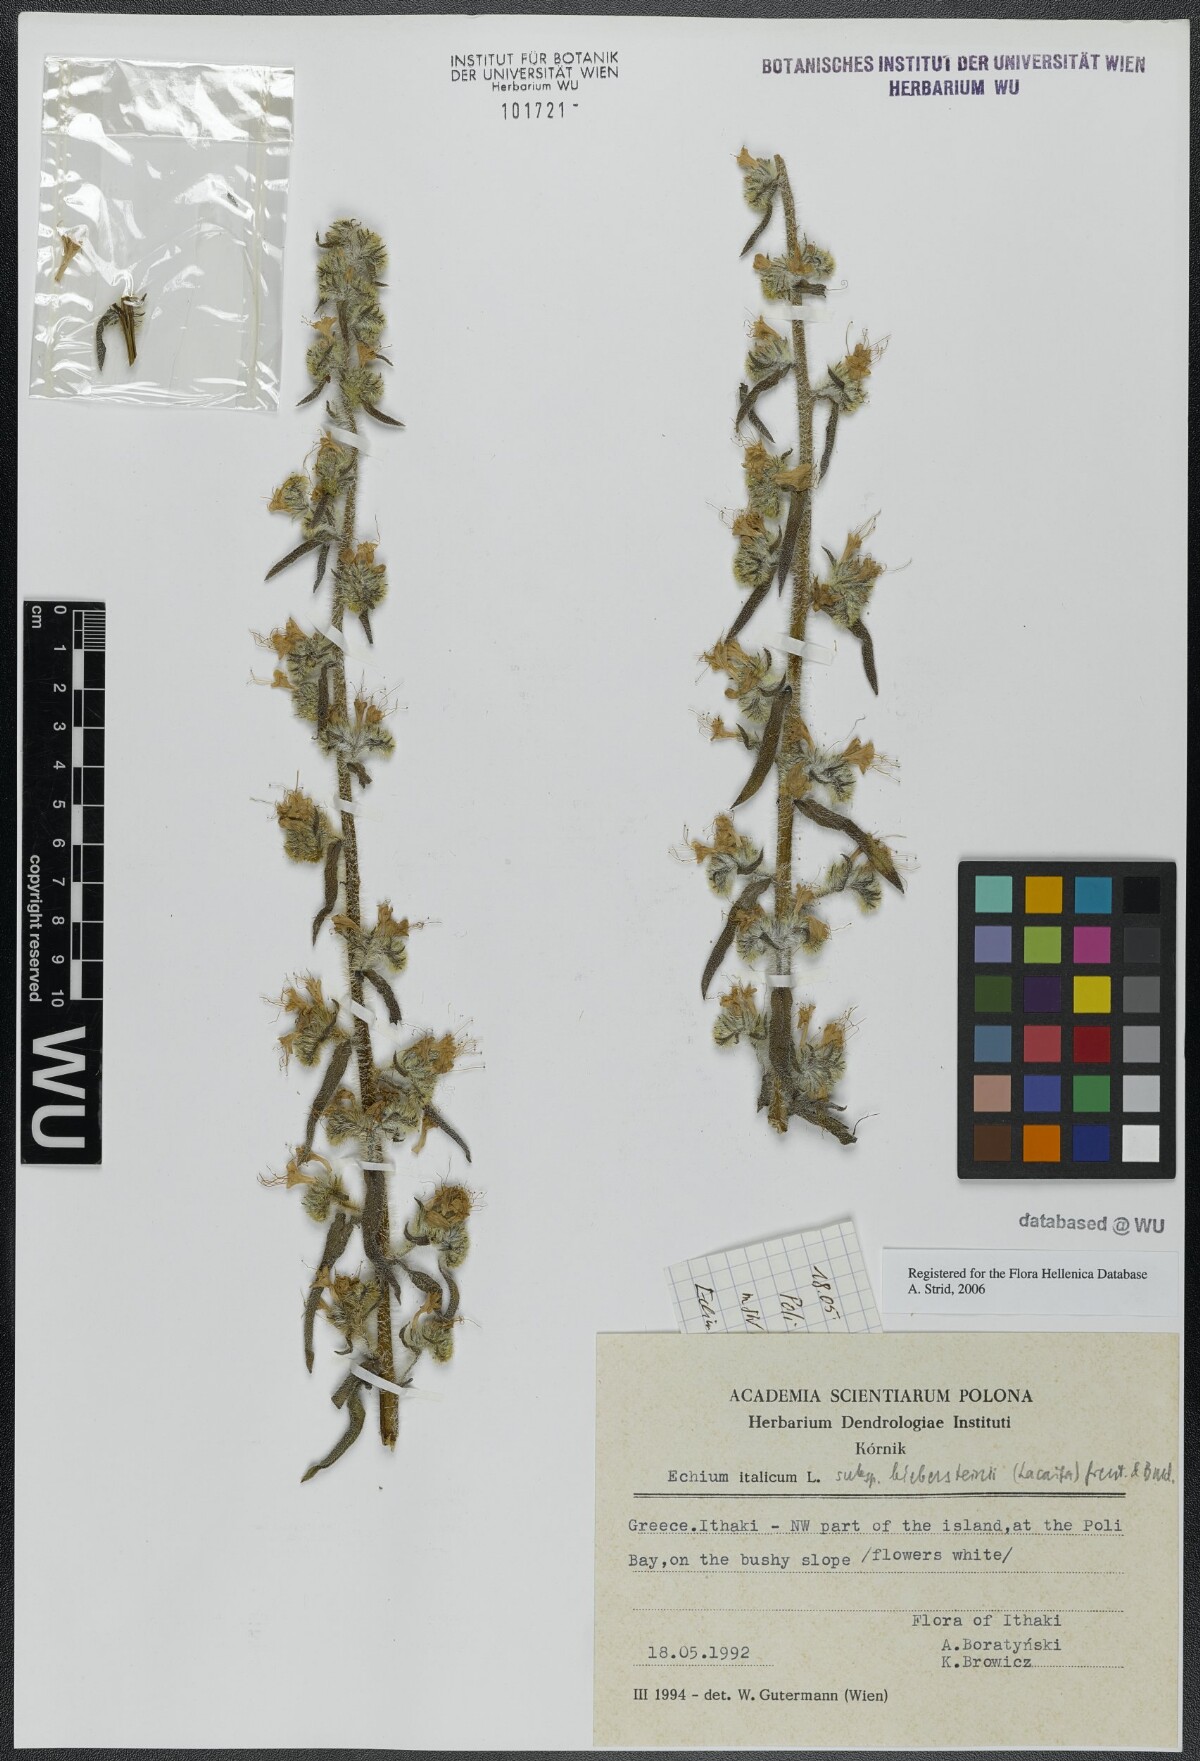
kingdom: Plantae
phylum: Tracheophyta
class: Magnoliopsida
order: Boraginales
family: Boraginaceae
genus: Echium
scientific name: Echium italicum
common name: Italian viper's bugloss
